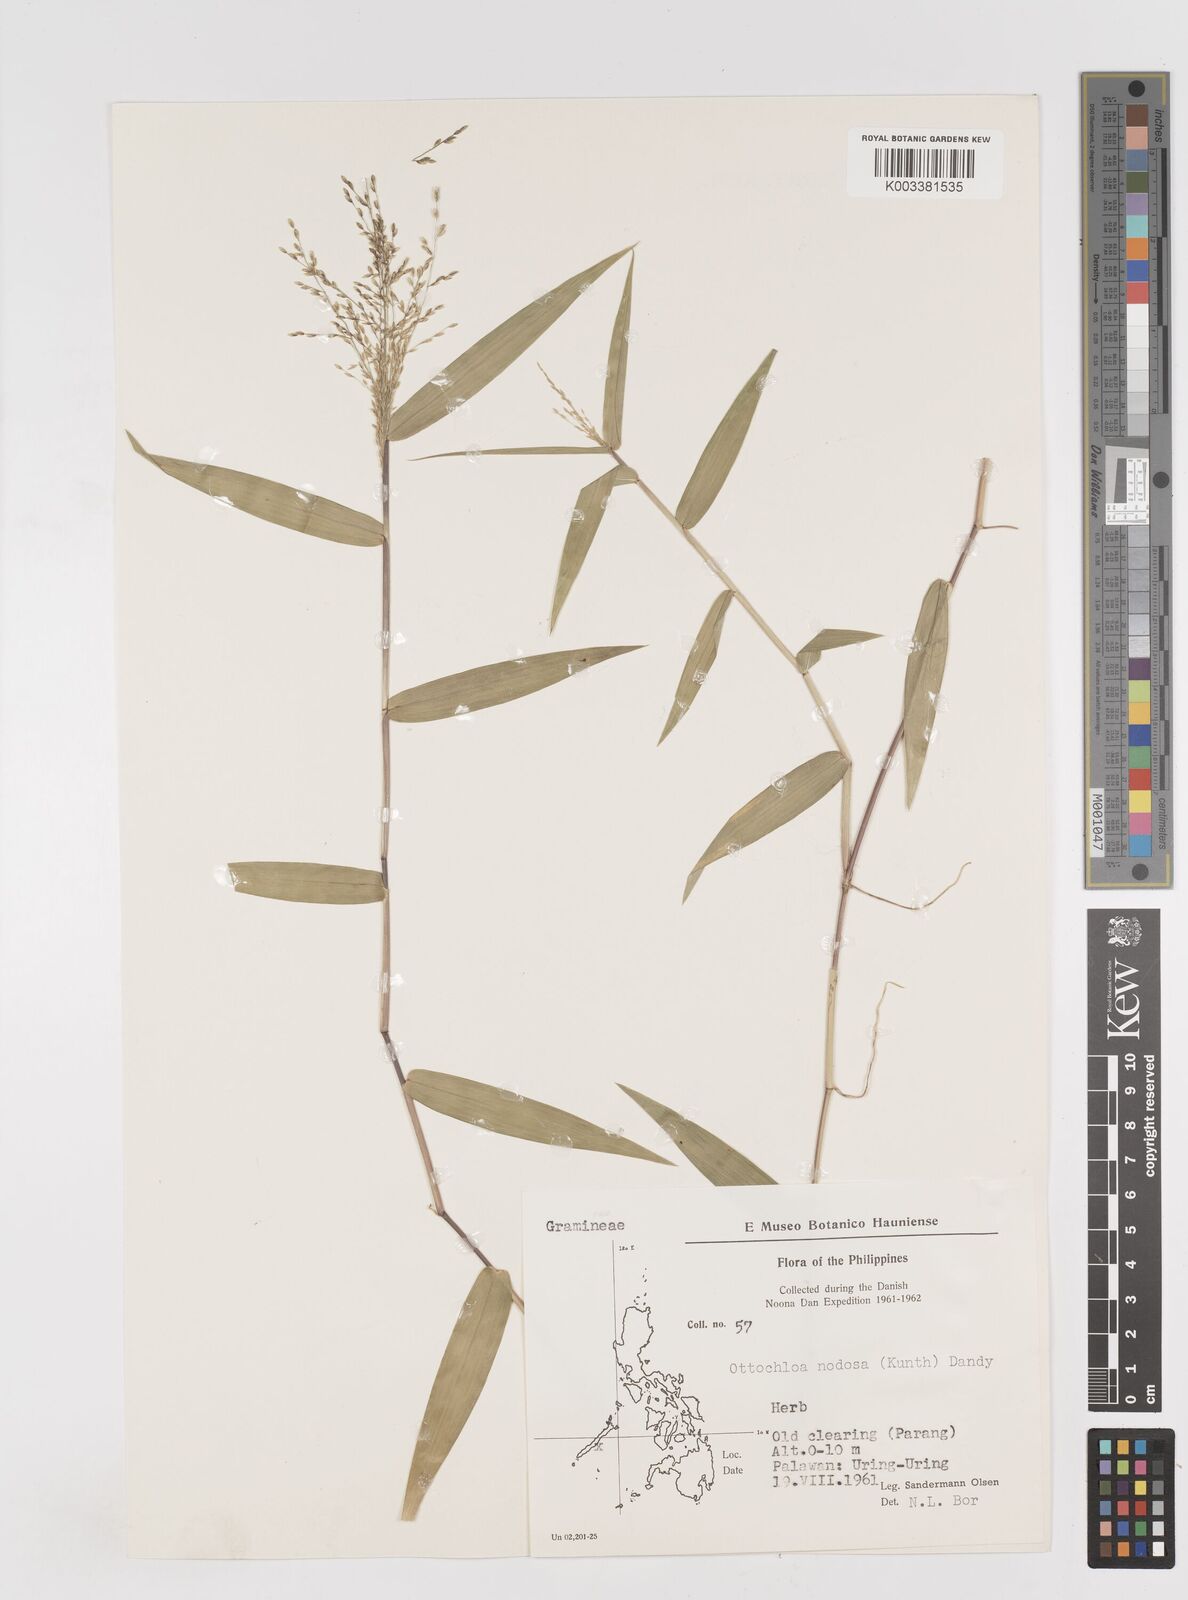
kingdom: Plantae
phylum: Tracheophyta
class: Liliopsida
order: Poales
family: Poaceae
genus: Ottochloa
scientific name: Ottochloa nodosa
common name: Slender-panic grass
